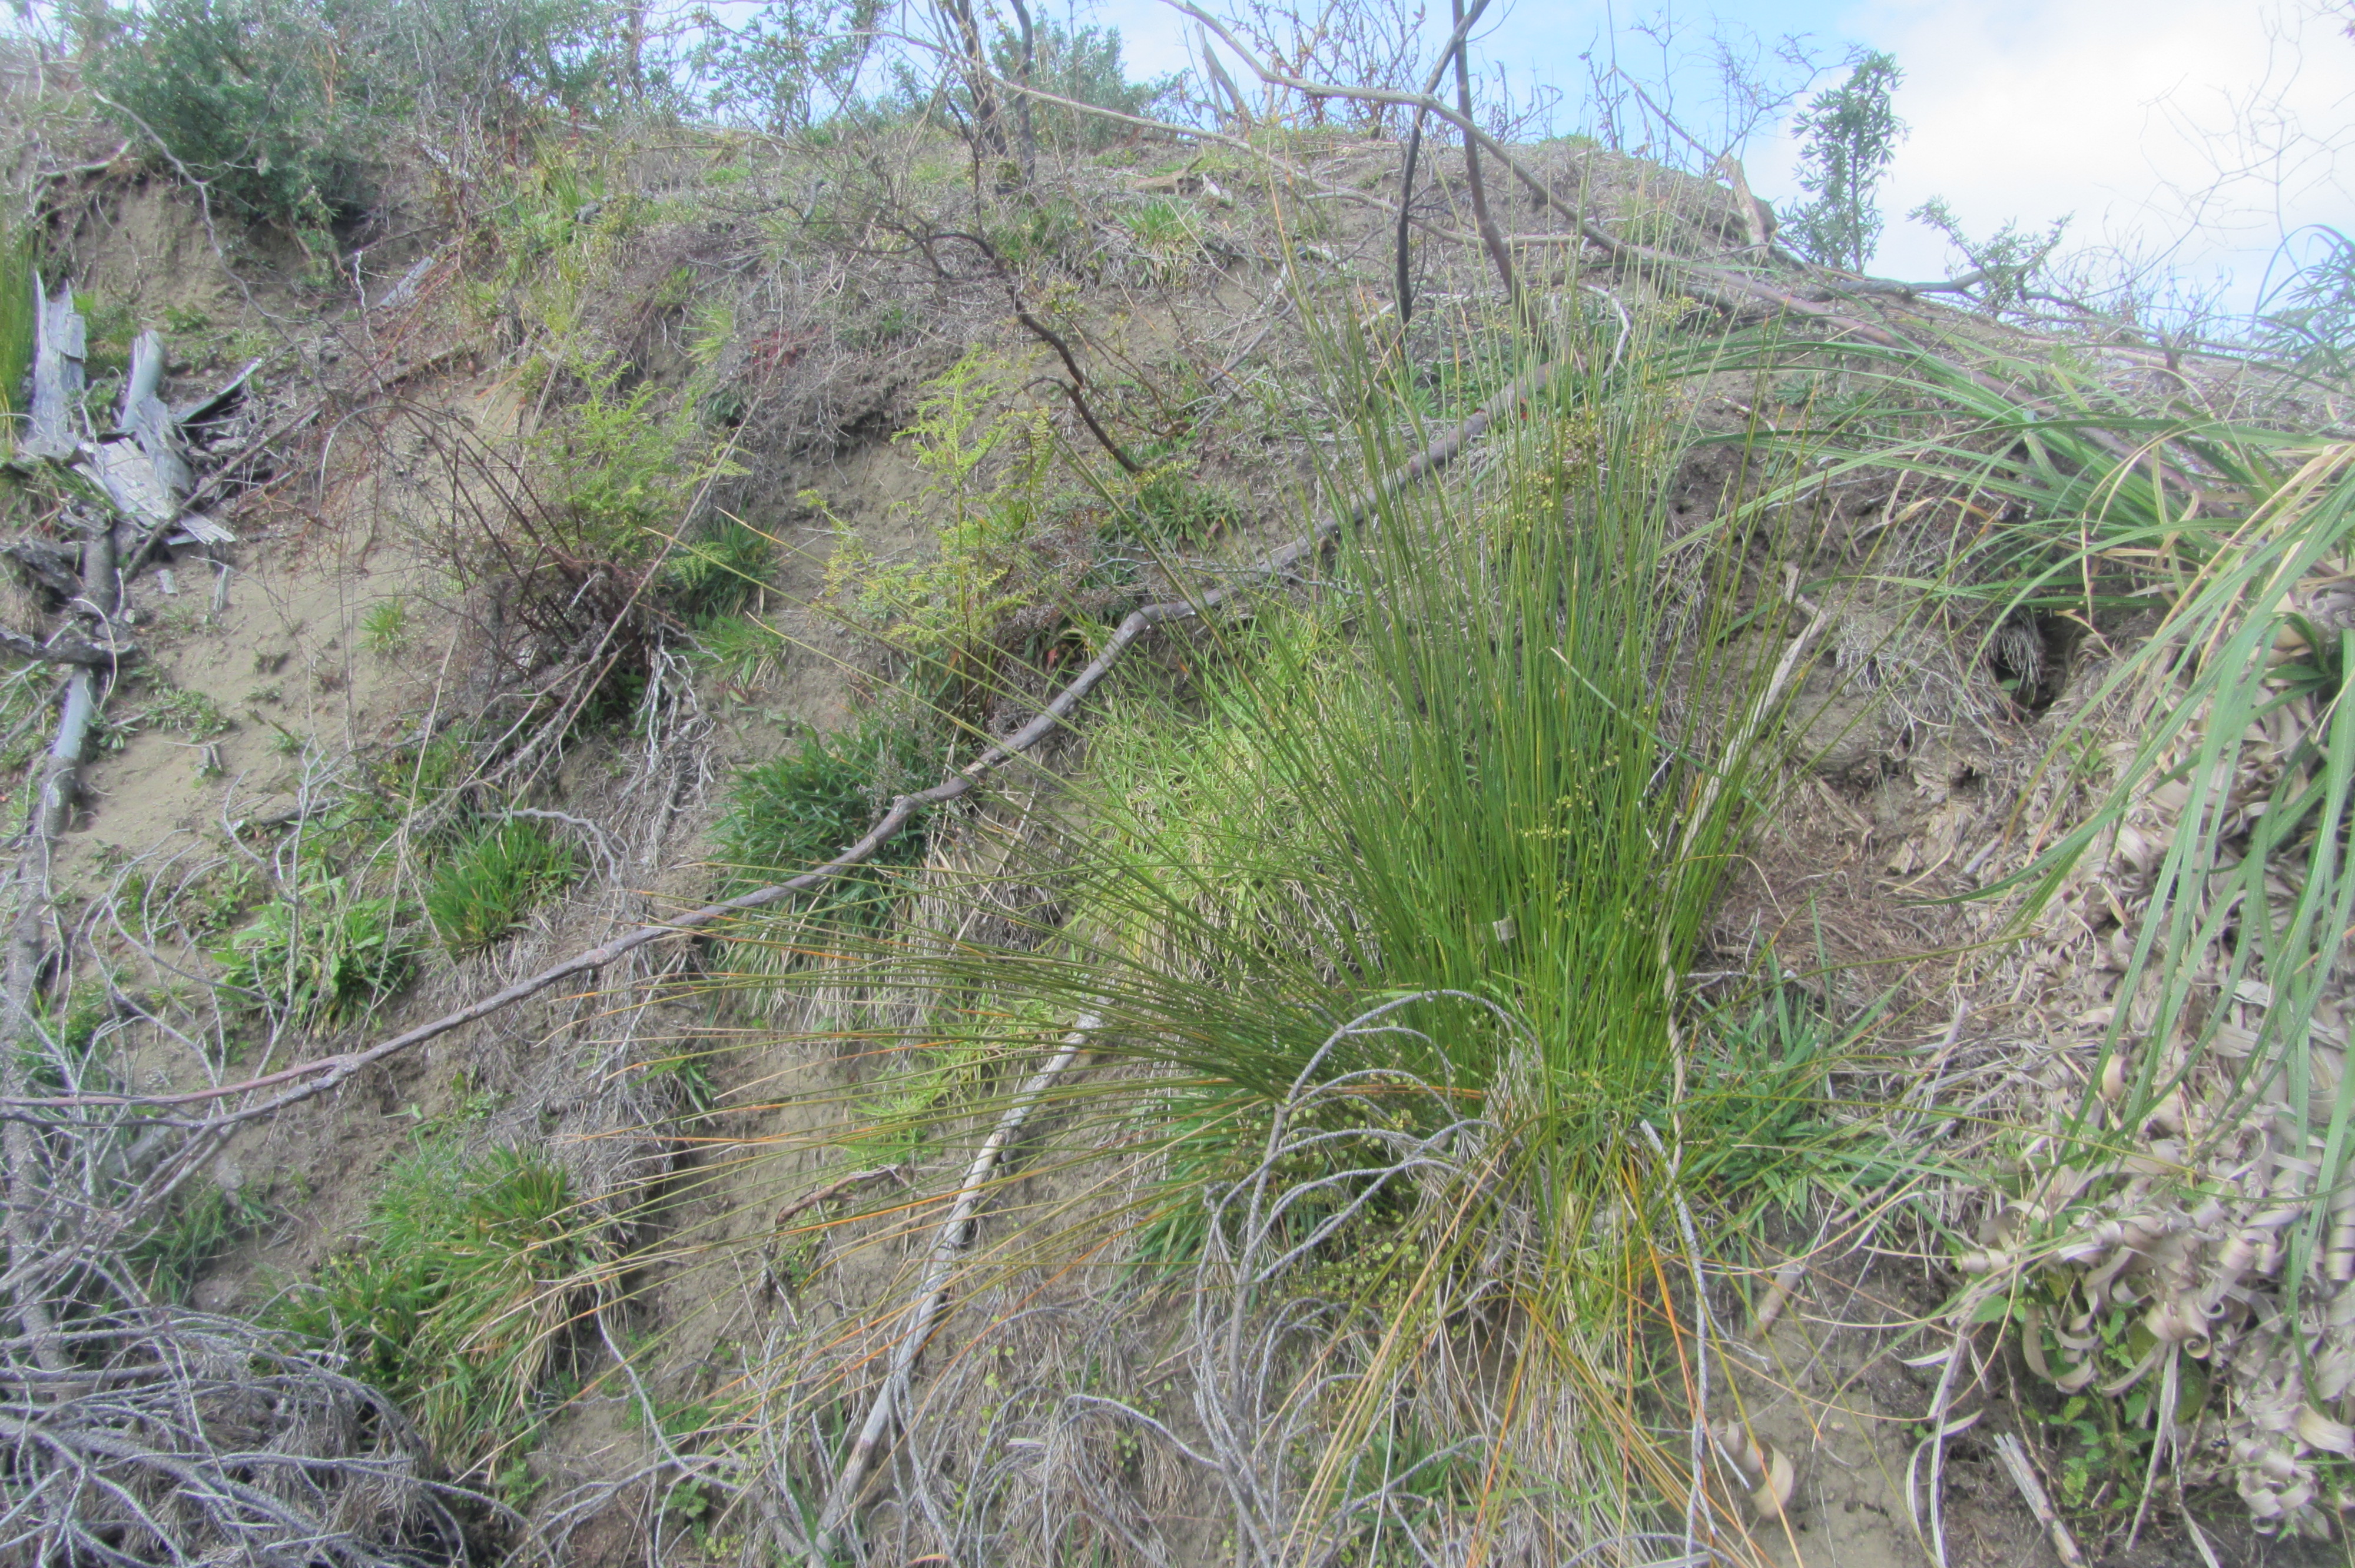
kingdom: Plantae
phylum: Tracheophyta
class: Liliopsida
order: Poales
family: Poaceae
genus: Anthoxanthum
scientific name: Anthoxanthum odoratum
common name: Sweet vernalgrass
